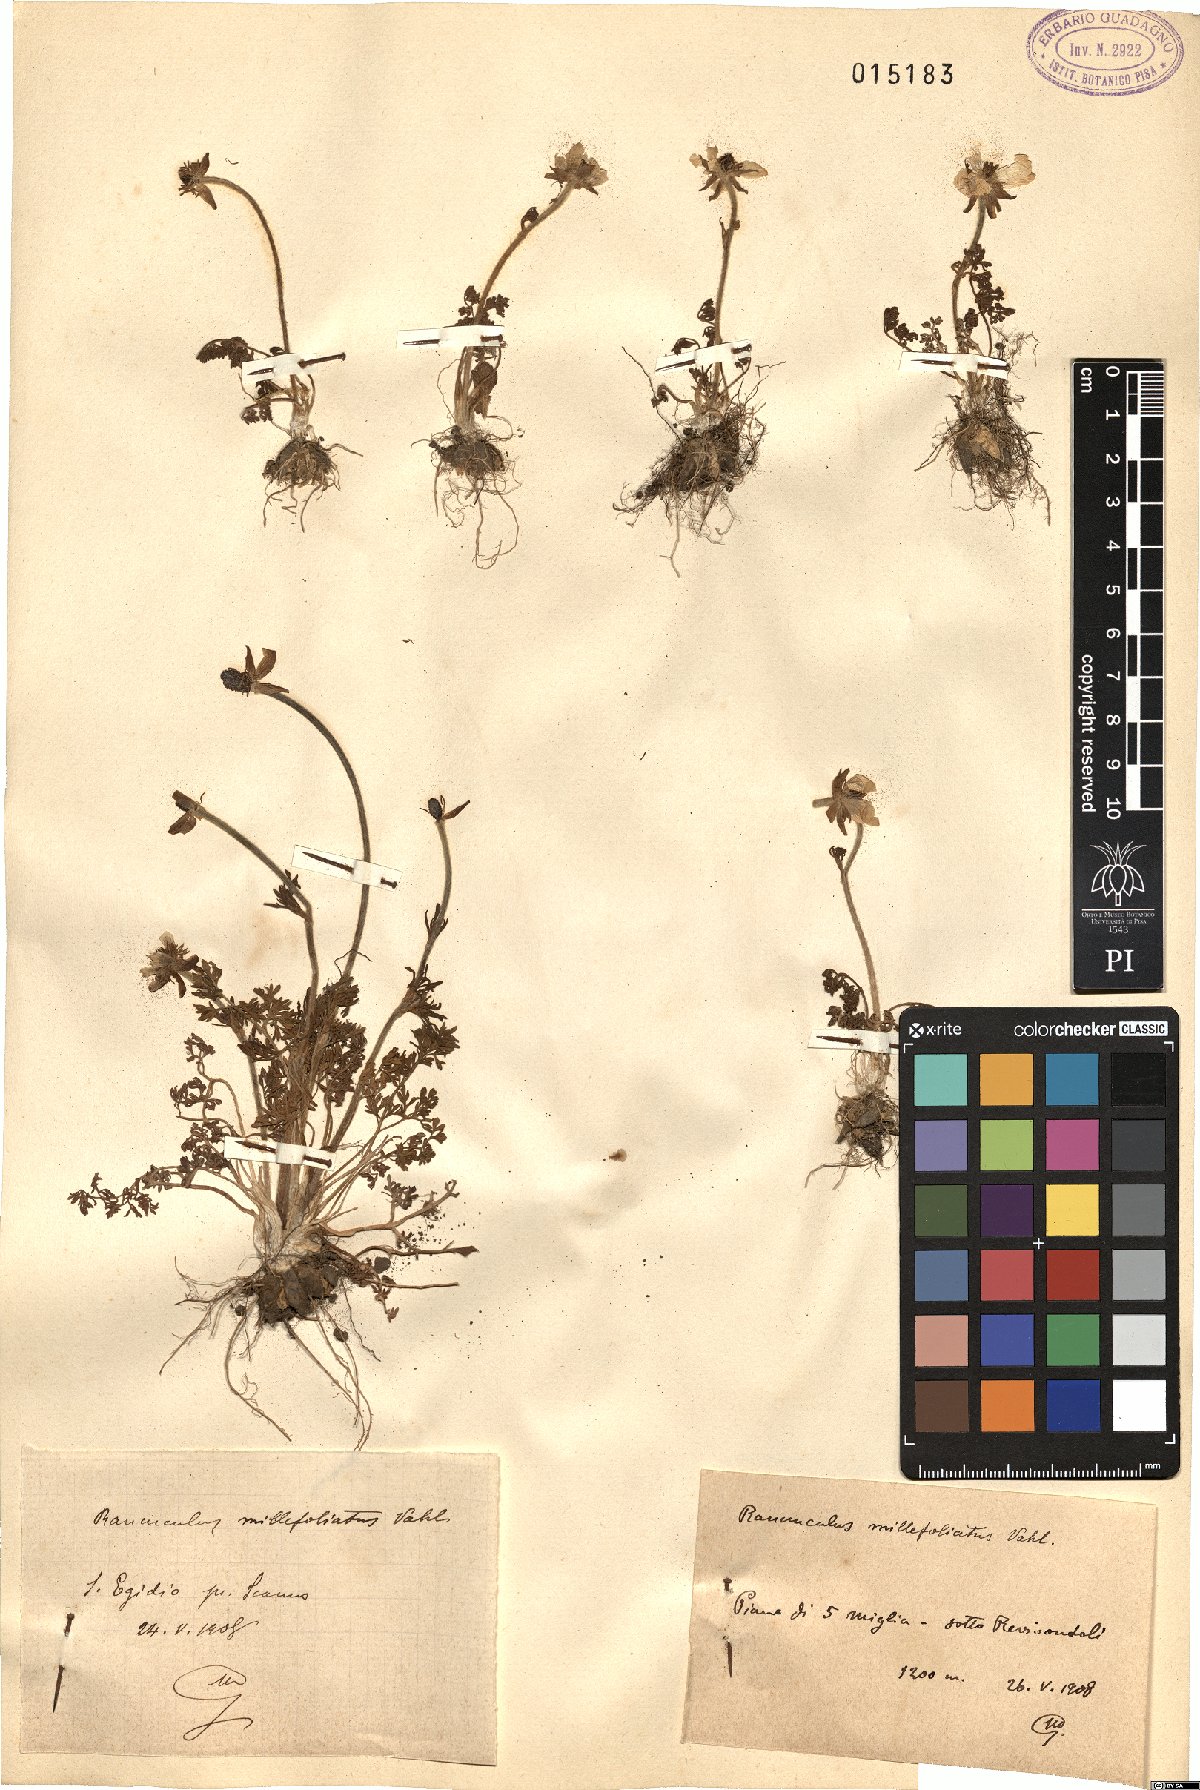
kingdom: Plantae
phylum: Tracheophyta
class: Magnoliopsida
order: Ranunculales
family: Ranunculaceae
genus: Ranunculus
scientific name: Ranunculus millefoliatus
